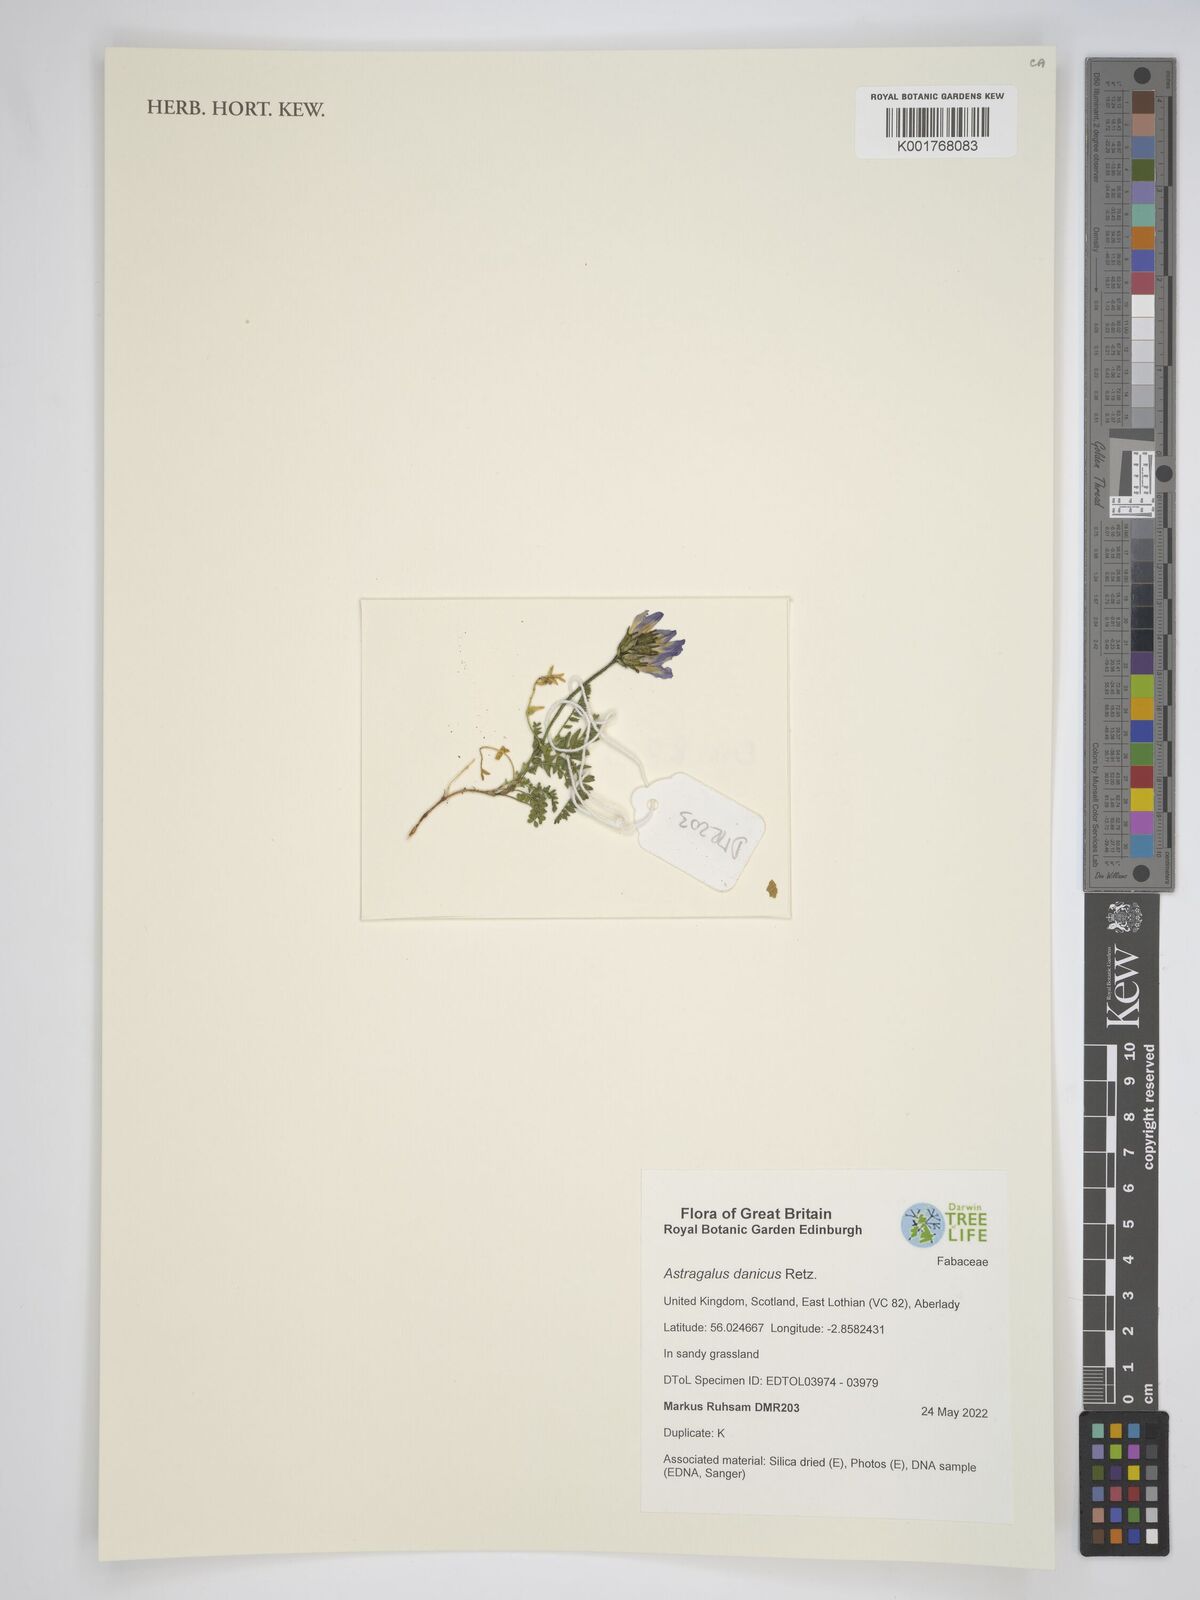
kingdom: Plantae
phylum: Tracheophyta
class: Magnoliopsida
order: Fabales
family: Fabaceae
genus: Astragalus
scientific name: Astragalus danicus
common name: Purple milk-vetch
